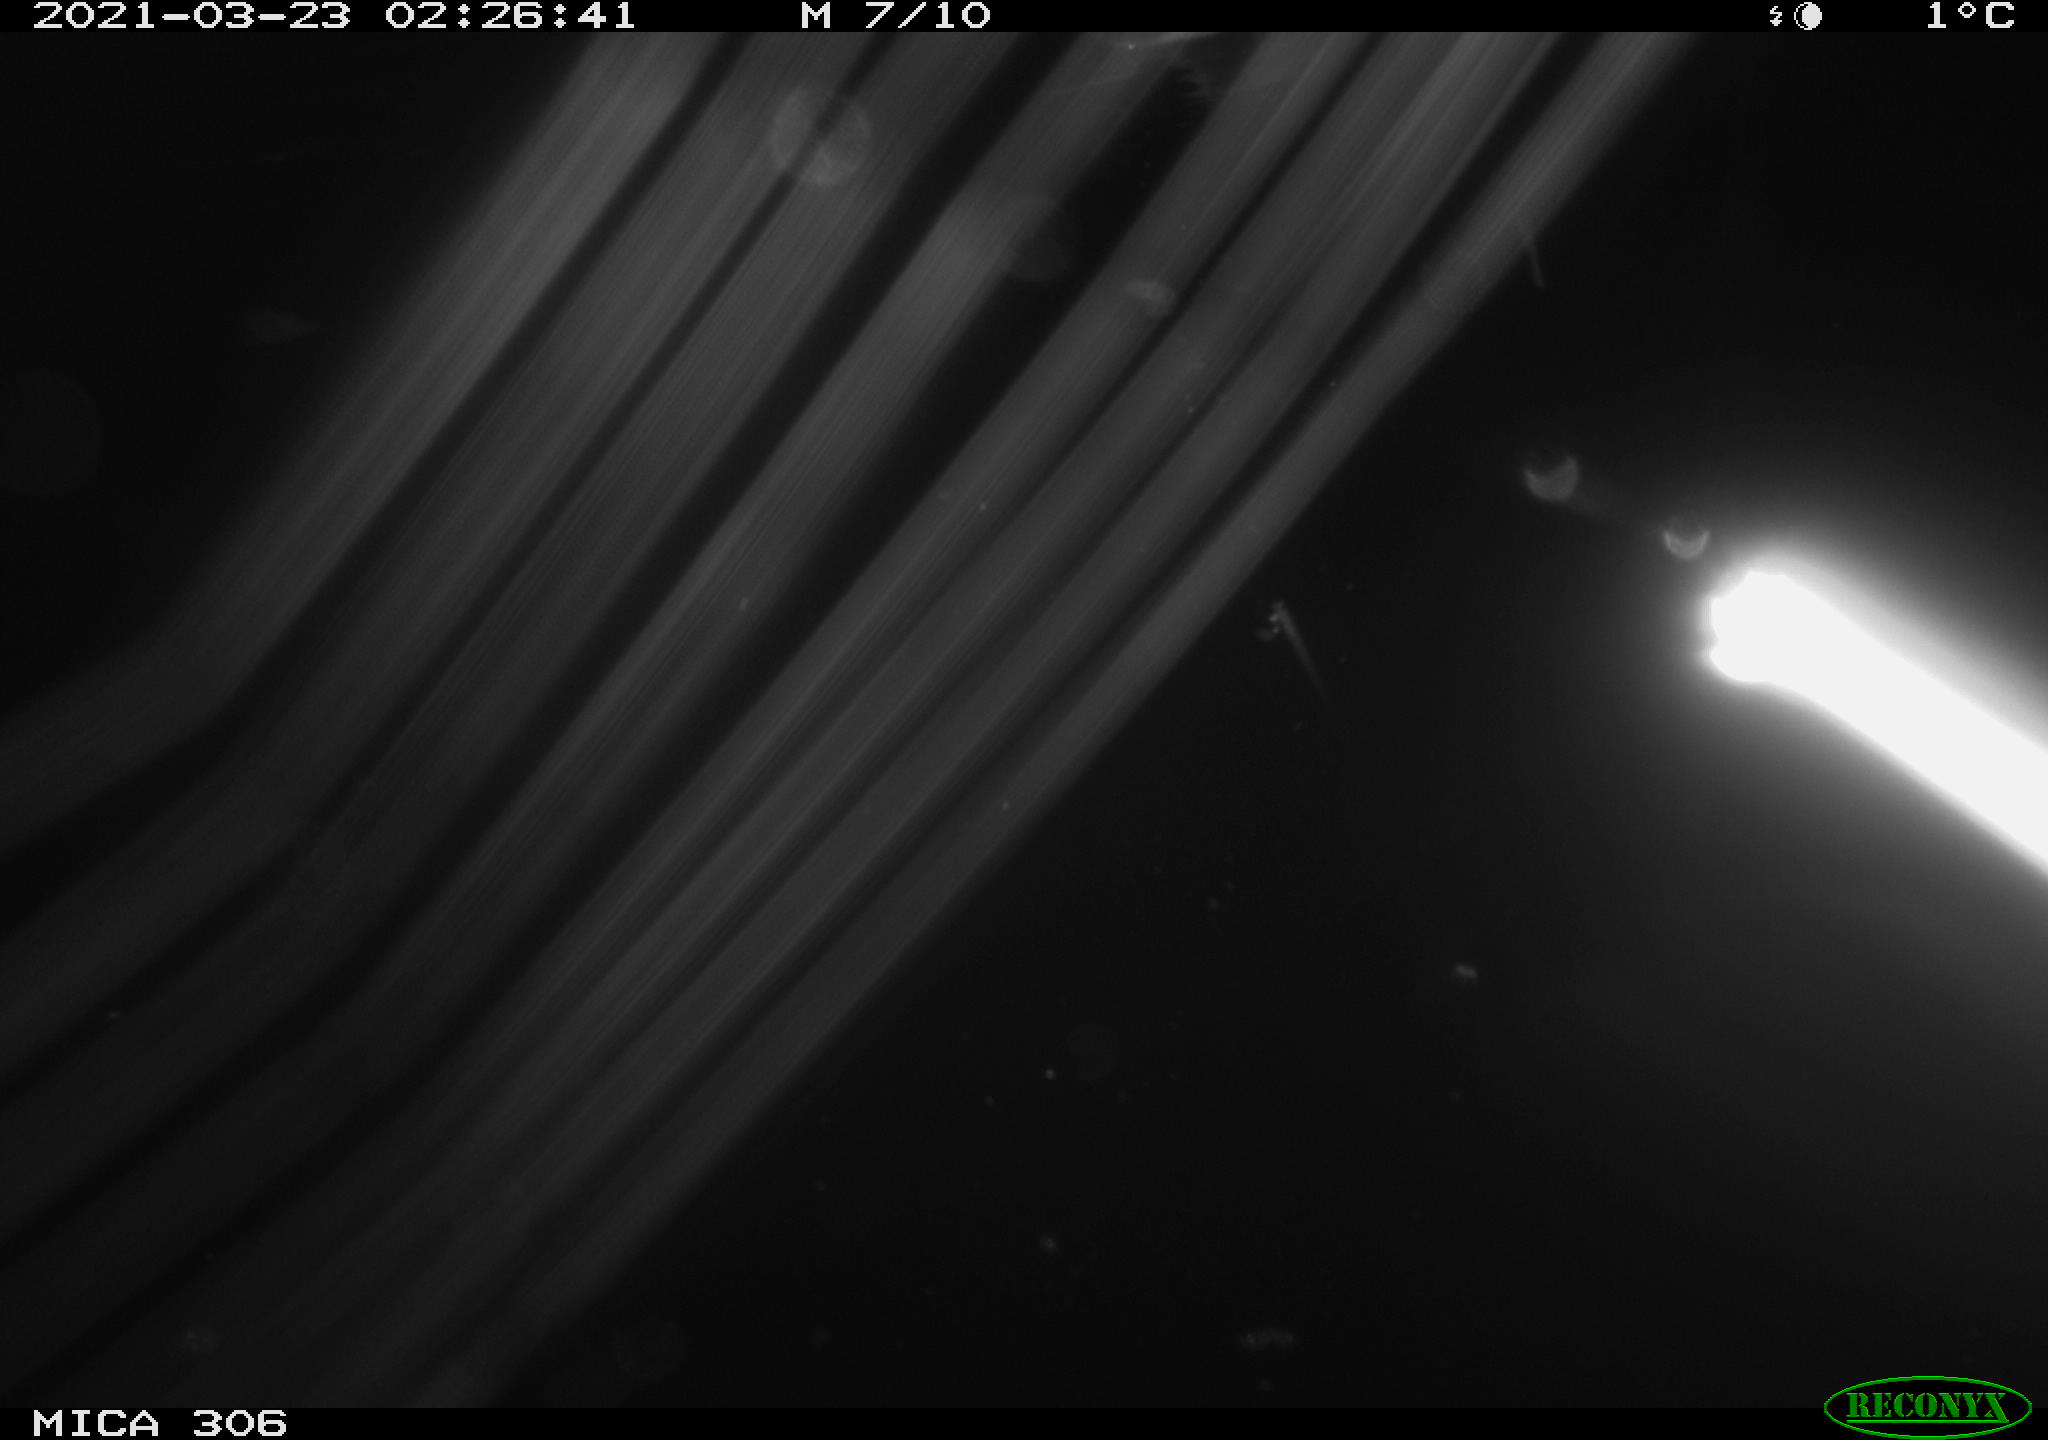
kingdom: Animalia
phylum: Chordata
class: Aves
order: Anseriformes
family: Anatidae
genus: Anas
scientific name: Anas platyrhynchos
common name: Mallard
